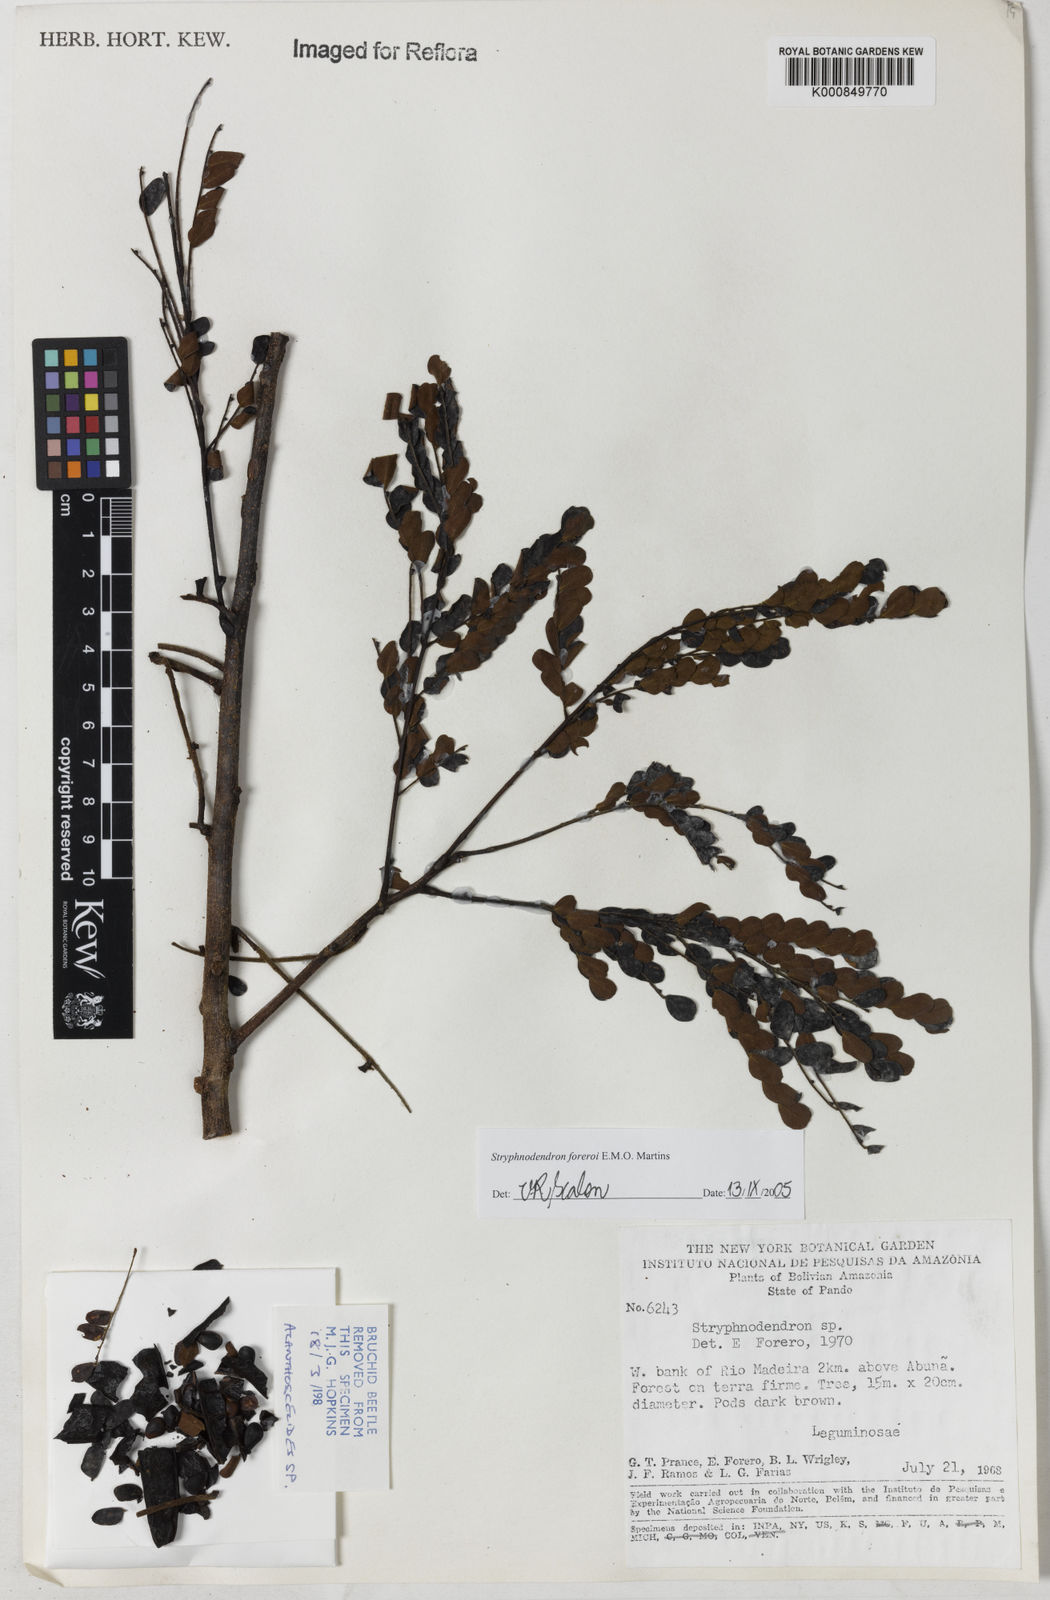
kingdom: Plantae
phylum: Tracheophyta
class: Magnoliopsida
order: Fabales
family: Fabaceae
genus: Stryphnodendron
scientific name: Stryphnodendron foreroi
